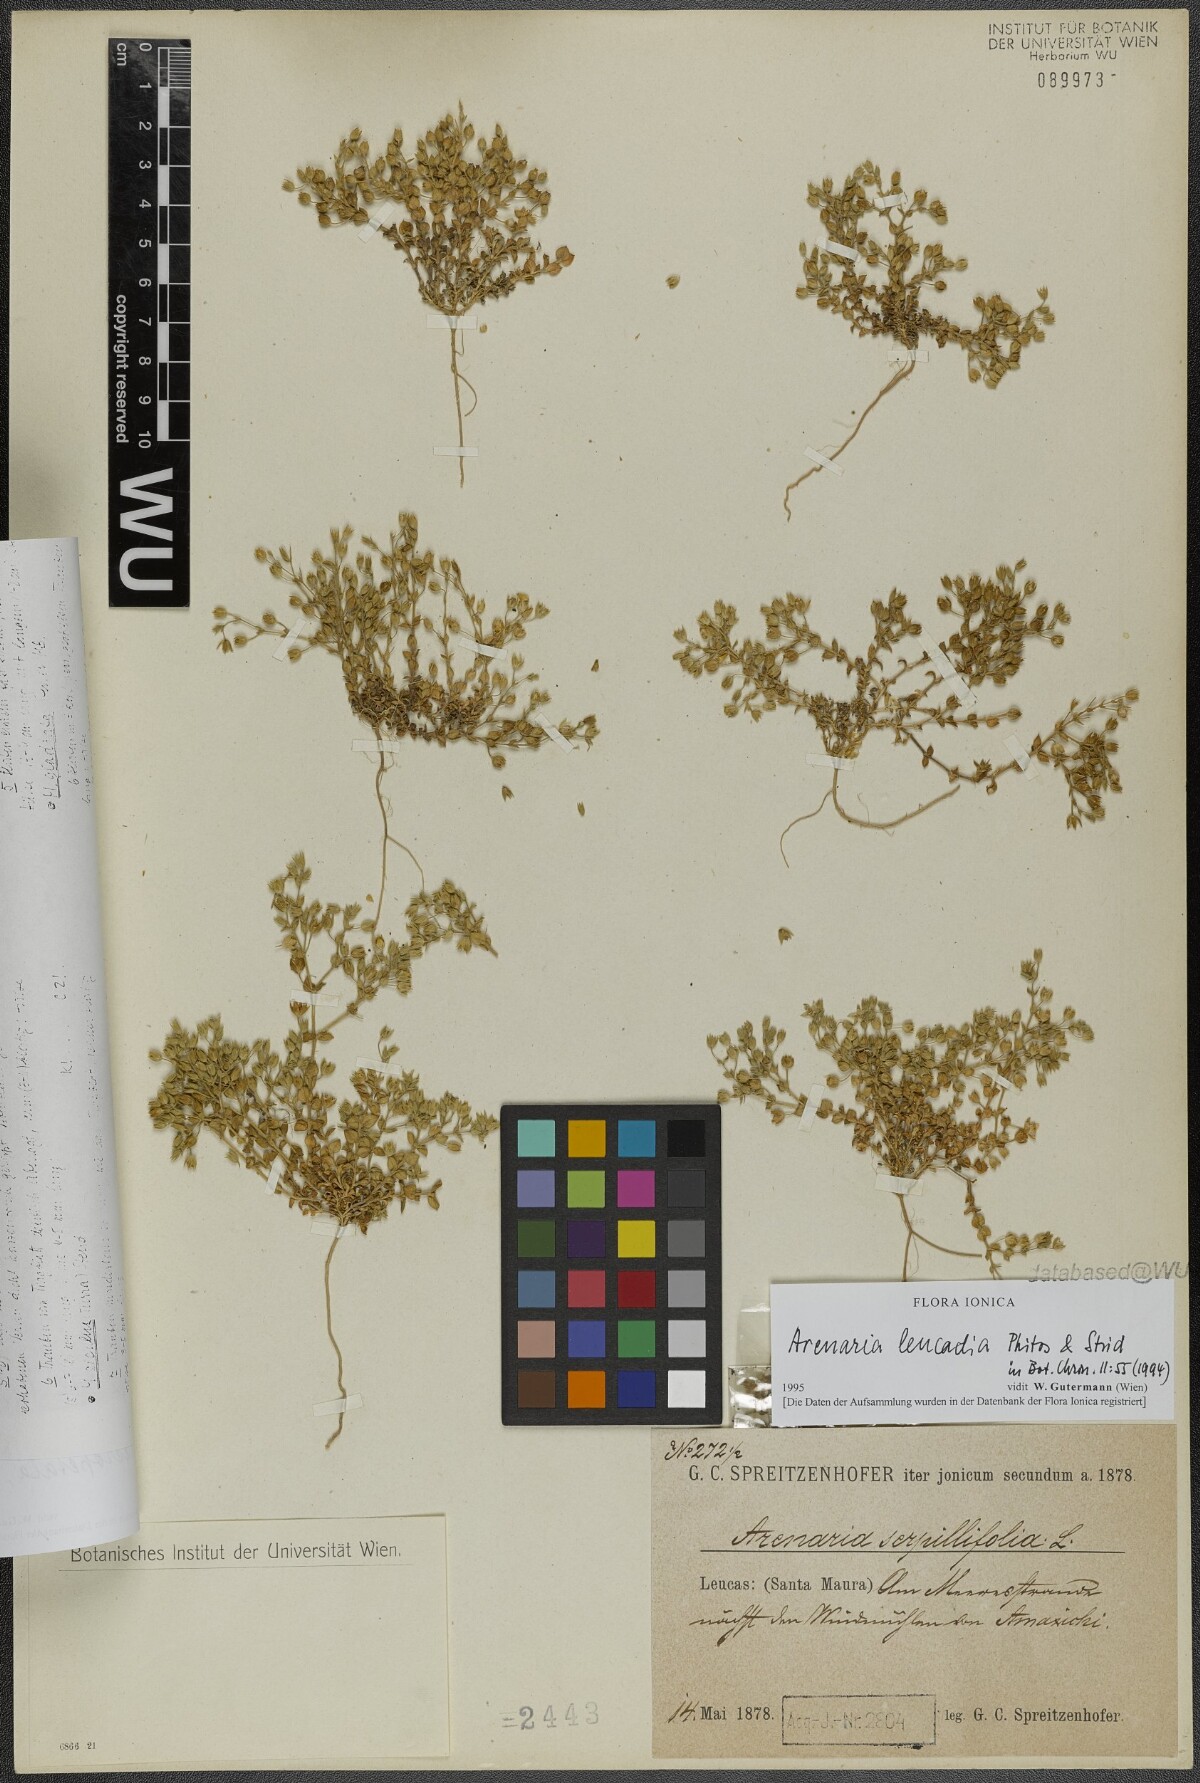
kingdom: Plantae
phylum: Tracheophyta
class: Magnoliopsida
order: Caryophyllales
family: Caryophyllaceae
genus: Arenaria
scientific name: Arenaria leucadia
